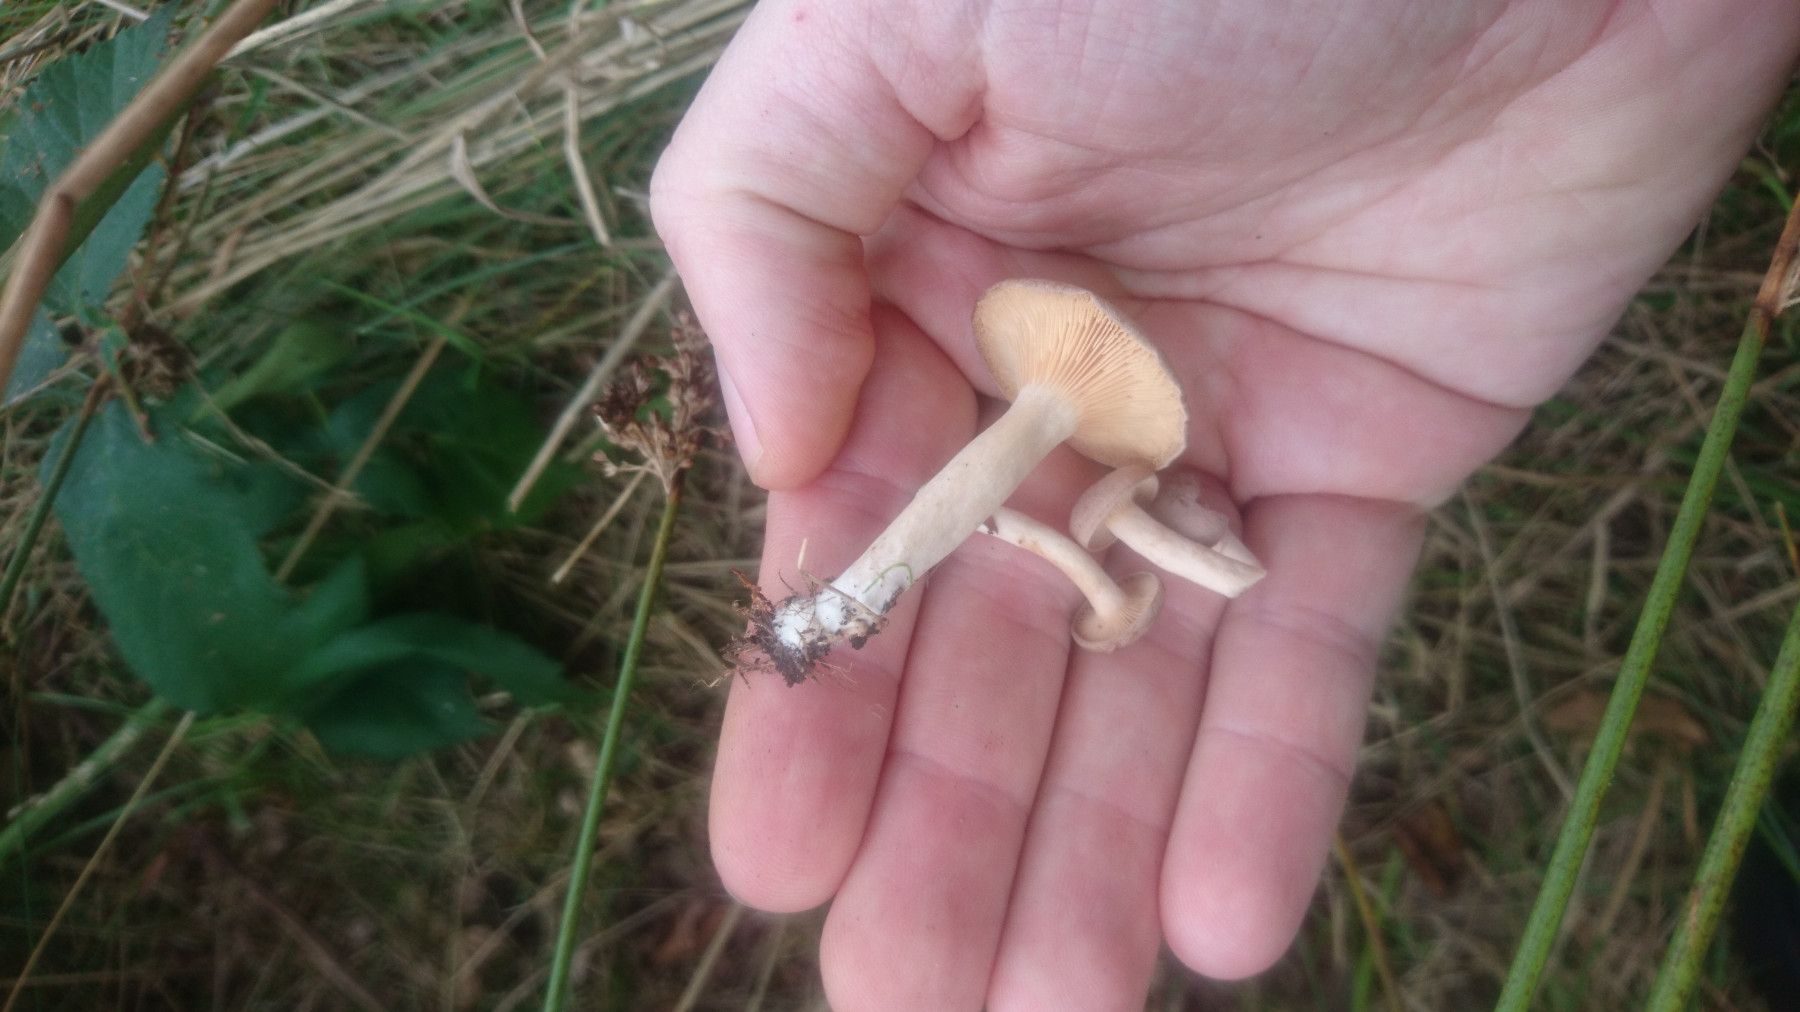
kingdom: Fungi
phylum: Basidiomycota
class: Agaricomycetes
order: Russulales
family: Russulaceae
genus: Lactarius
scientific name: Lactarius glyciosmus
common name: kokos-mælkehat
